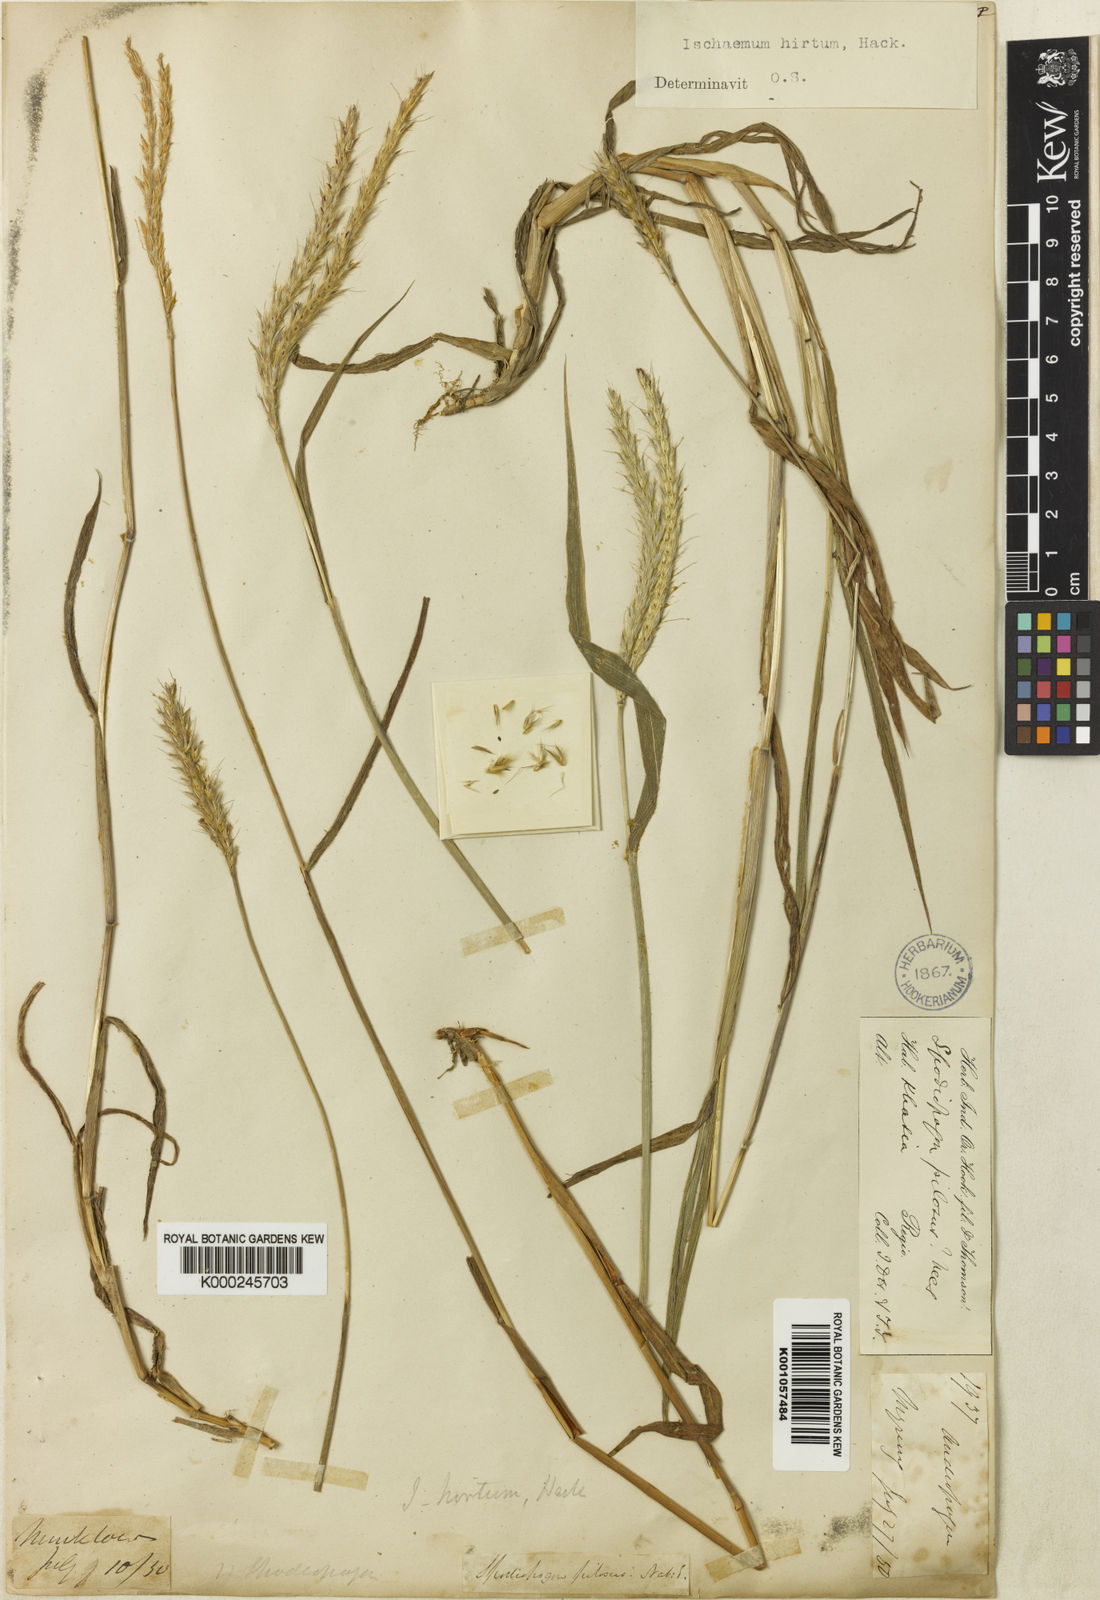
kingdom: Plantae
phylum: Tracheophyta
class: Liliopsida
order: Poales
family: Poaceae
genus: Ischaemum
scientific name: Ischaemum polystachyum
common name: Paddle grass
